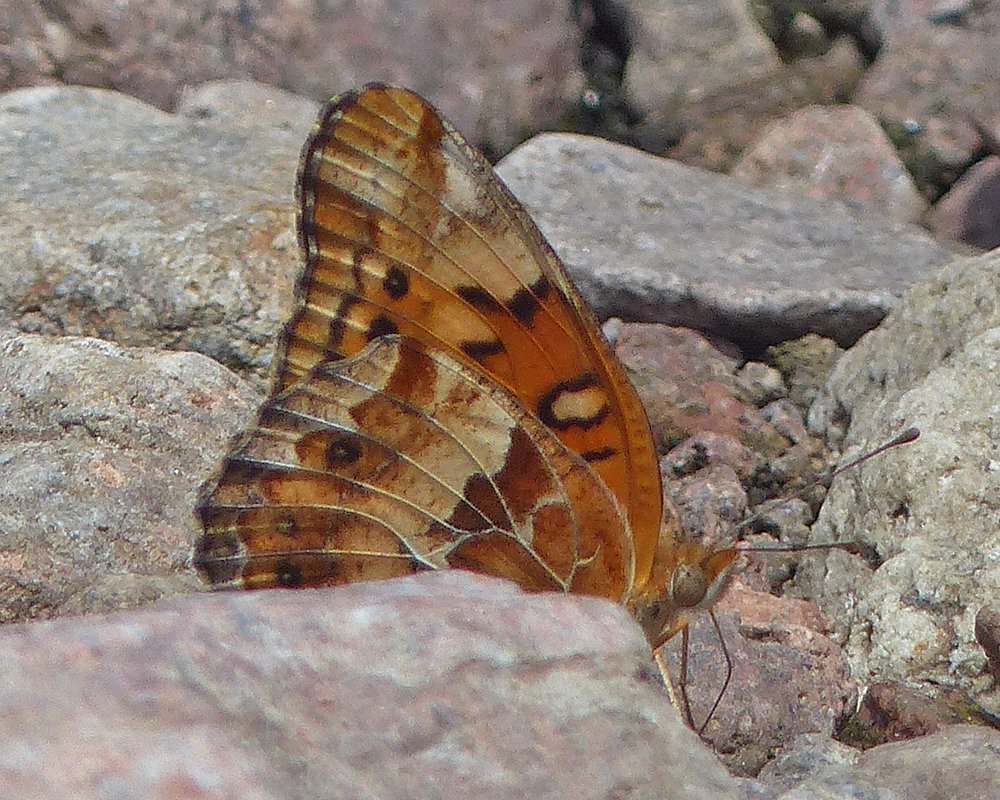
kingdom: Animalia
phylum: Arthropoda
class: Insecta
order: Lepidoptera
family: Nymphalidae
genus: Euptoieta
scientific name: Euptoieta claudia
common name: Variegated Fritillary
